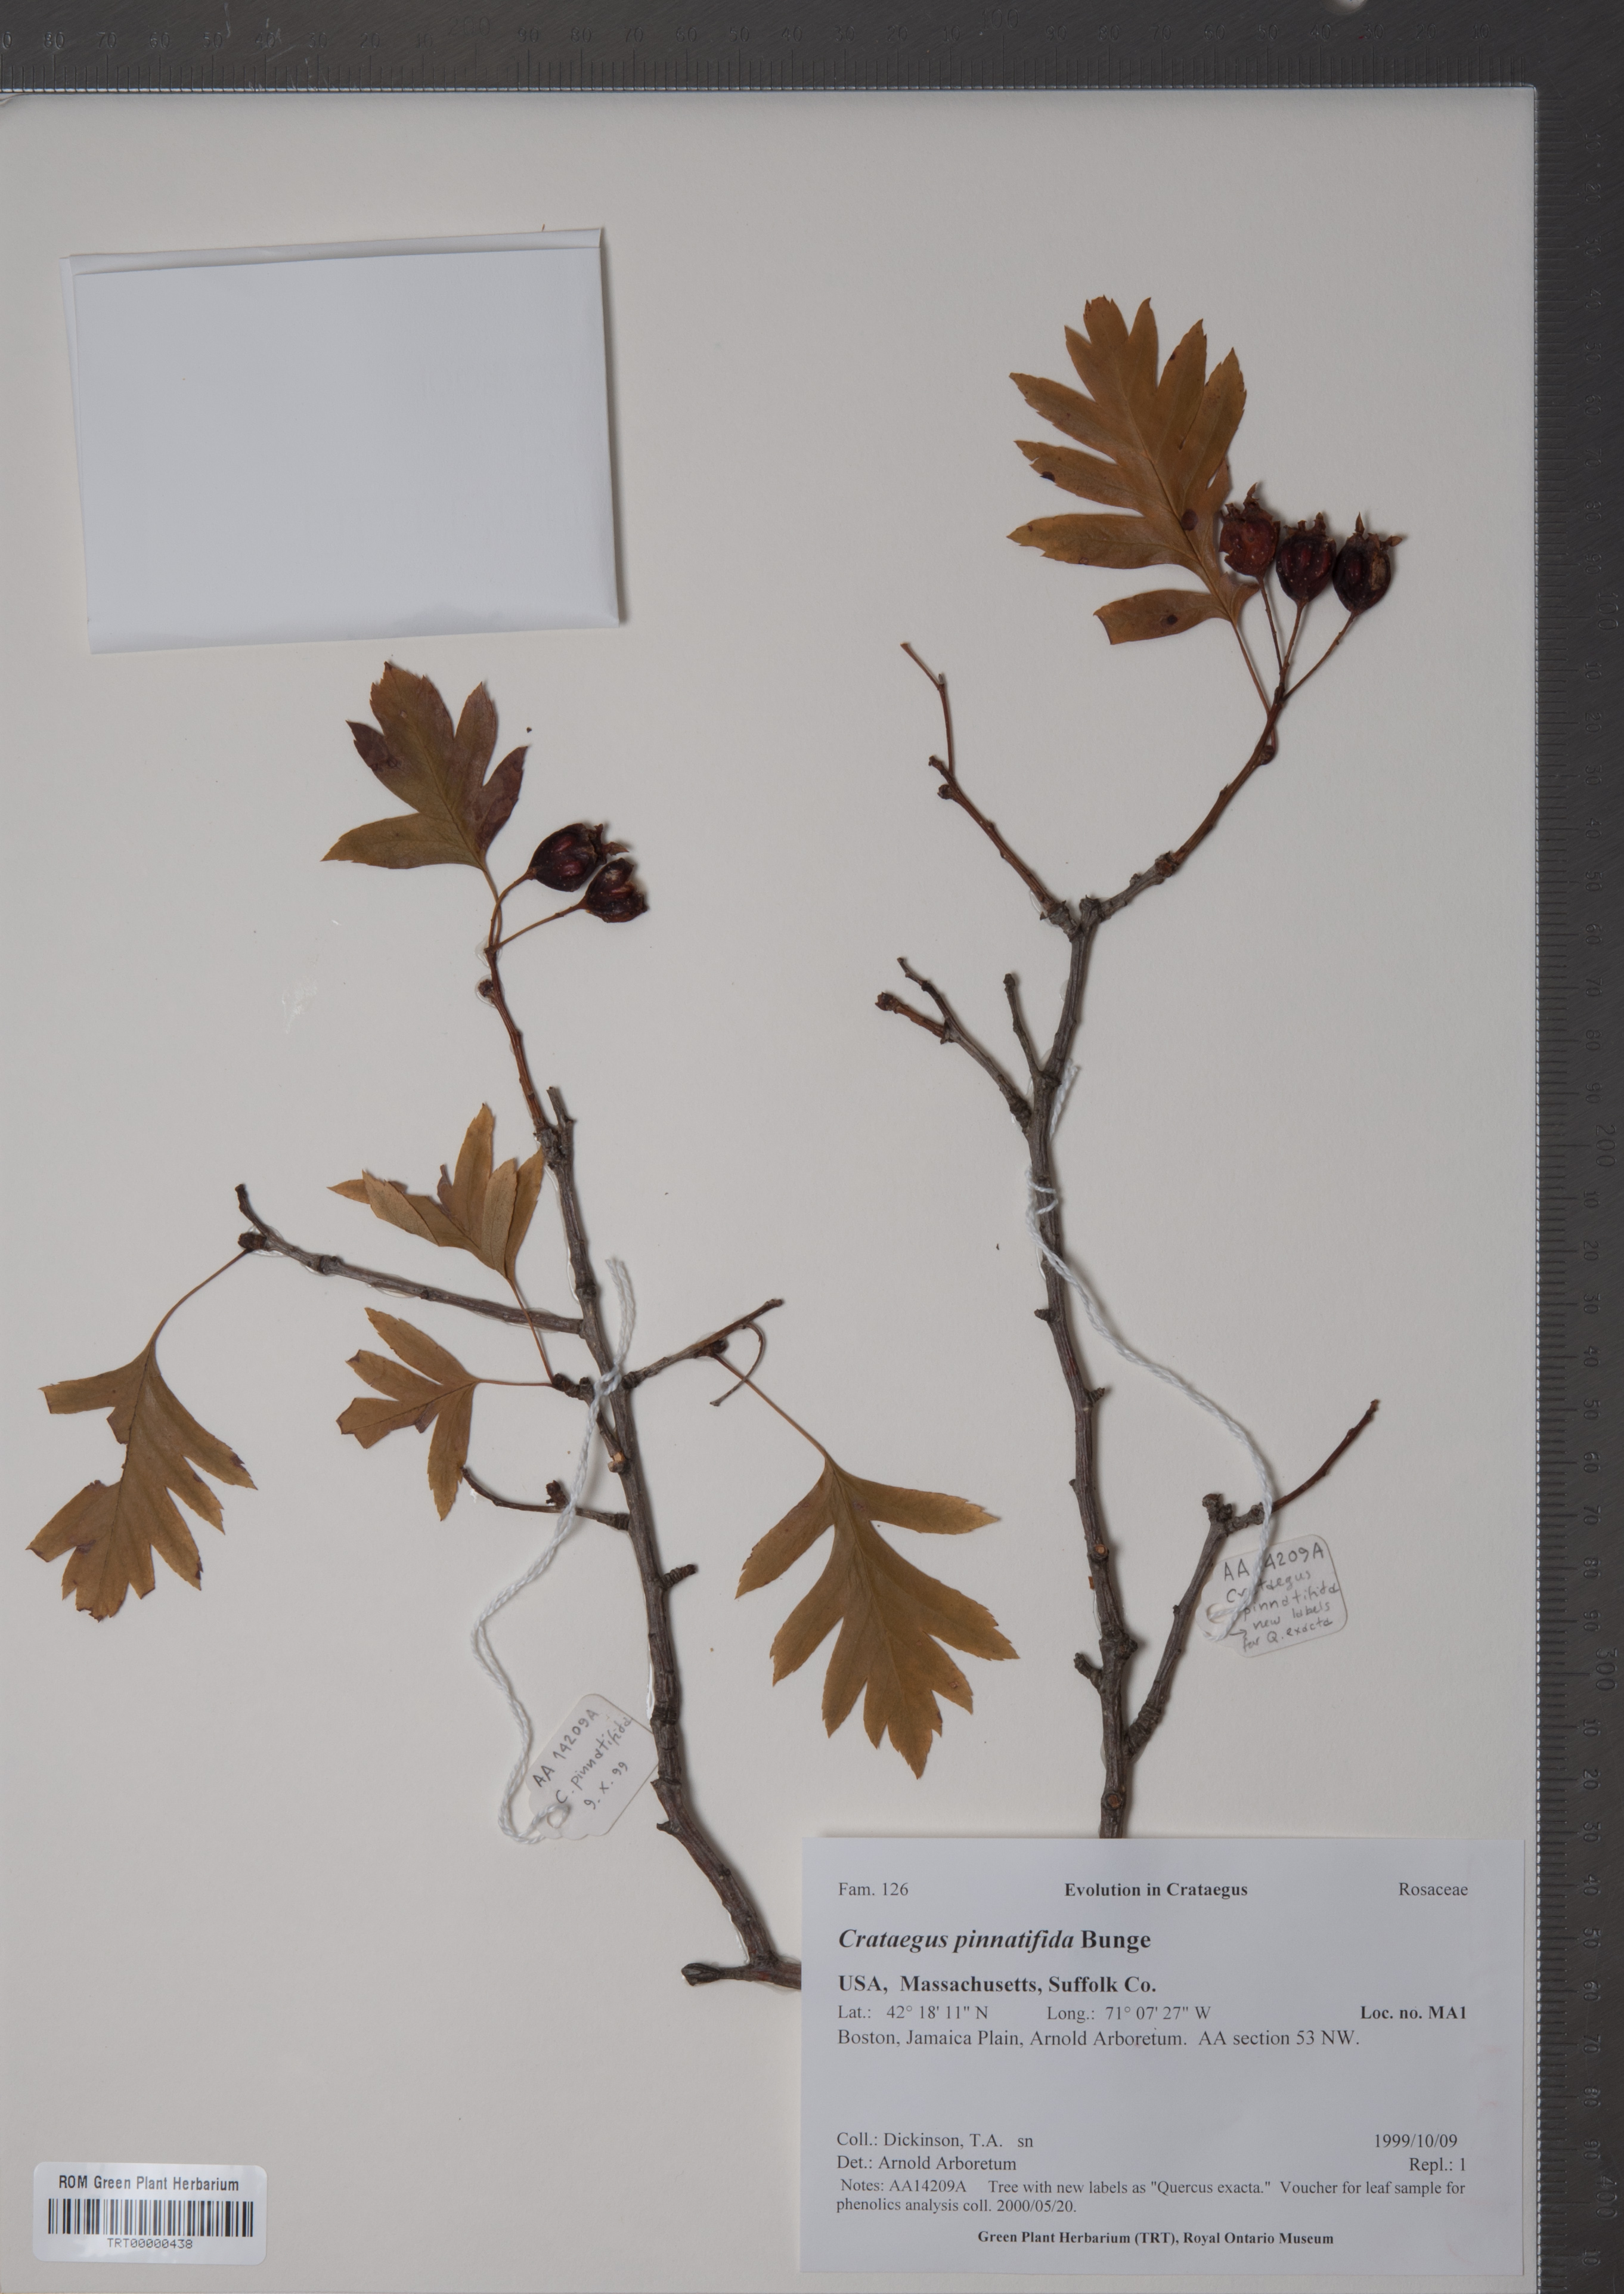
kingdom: Plantae
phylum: Tracheophyta
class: Magnoliopsida
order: Rosales
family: Rosaceae
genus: Crataegus
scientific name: Crataegus pinnatifida
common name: Chinese haw
